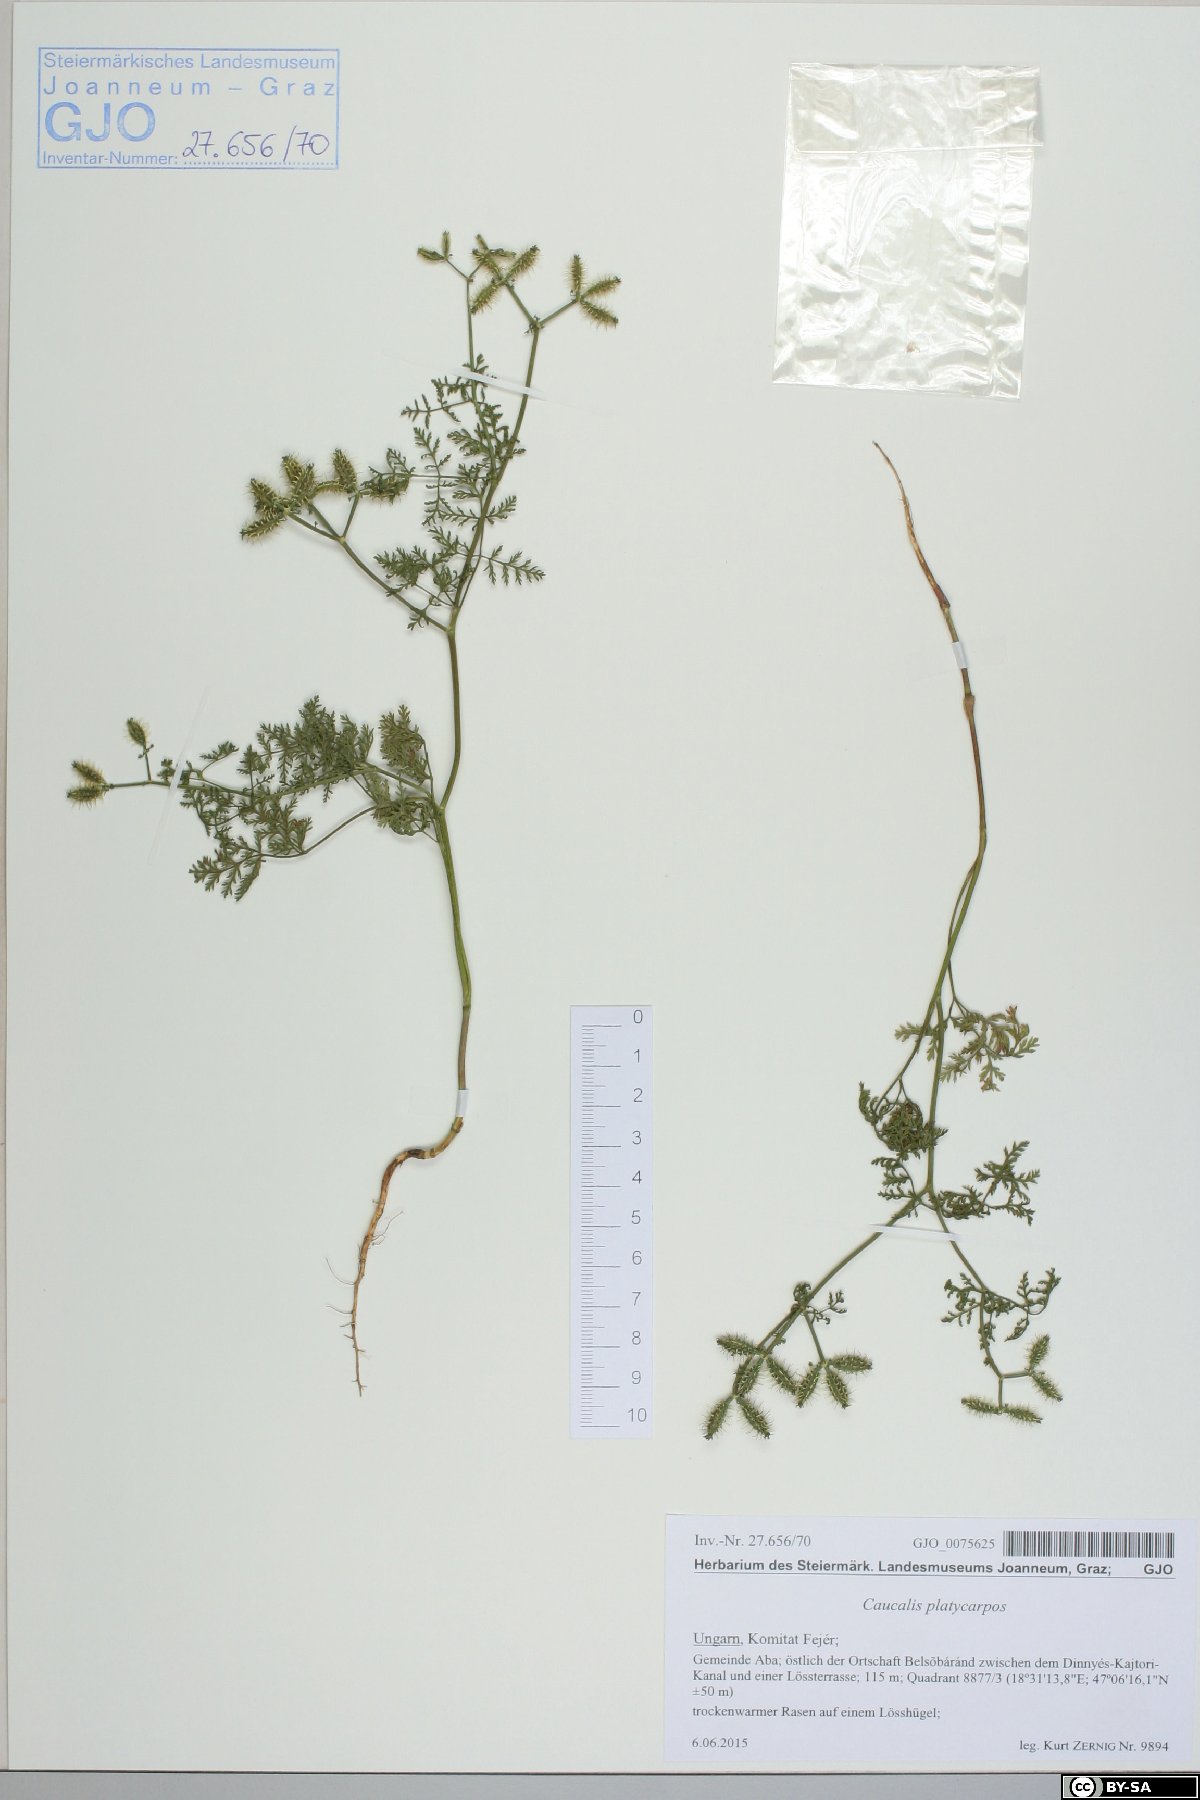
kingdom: Plantae
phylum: Tracheophyta
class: Magnoliopsida
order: Apiales
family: Apiaceae
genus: Caucalis
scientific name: Caucalis platycarpos
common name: Small bur-parsley
